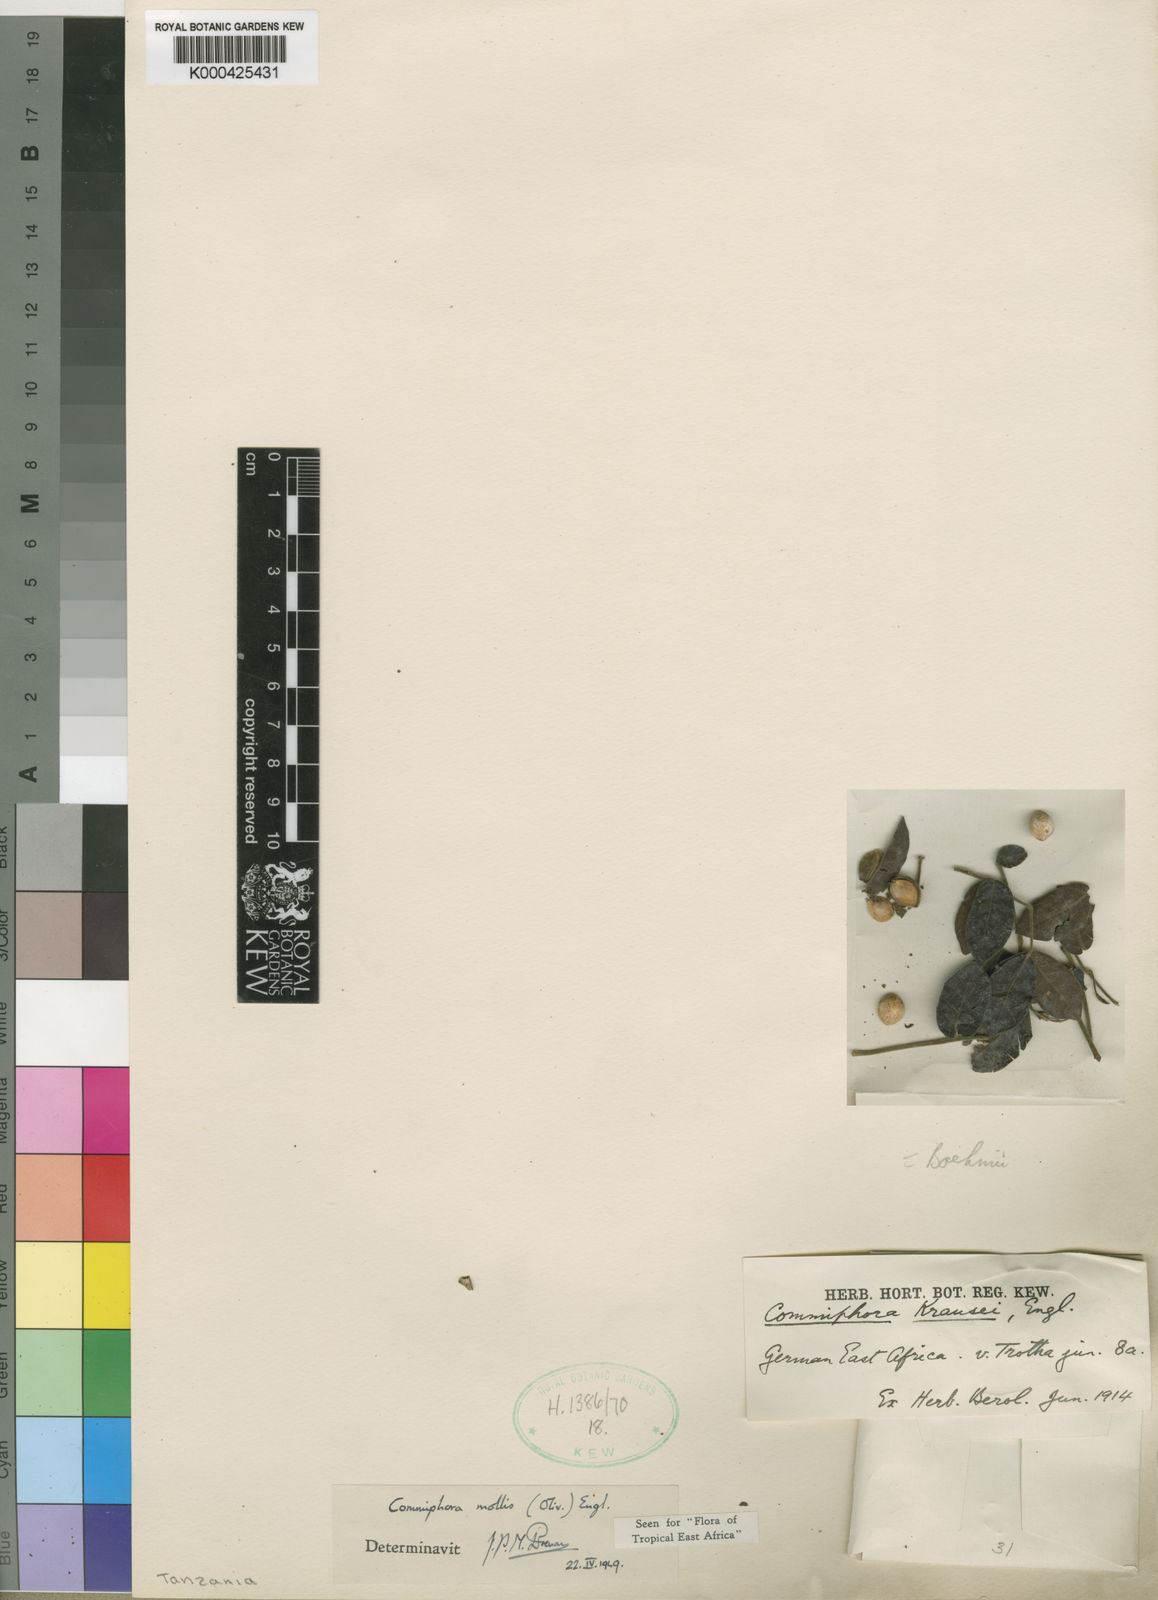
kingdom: Plantae
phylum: Tracheophyta
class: Magnoliopsida
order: Sapindales
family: Burseraceae
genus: Commiphora
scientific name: Commiphora mollis
